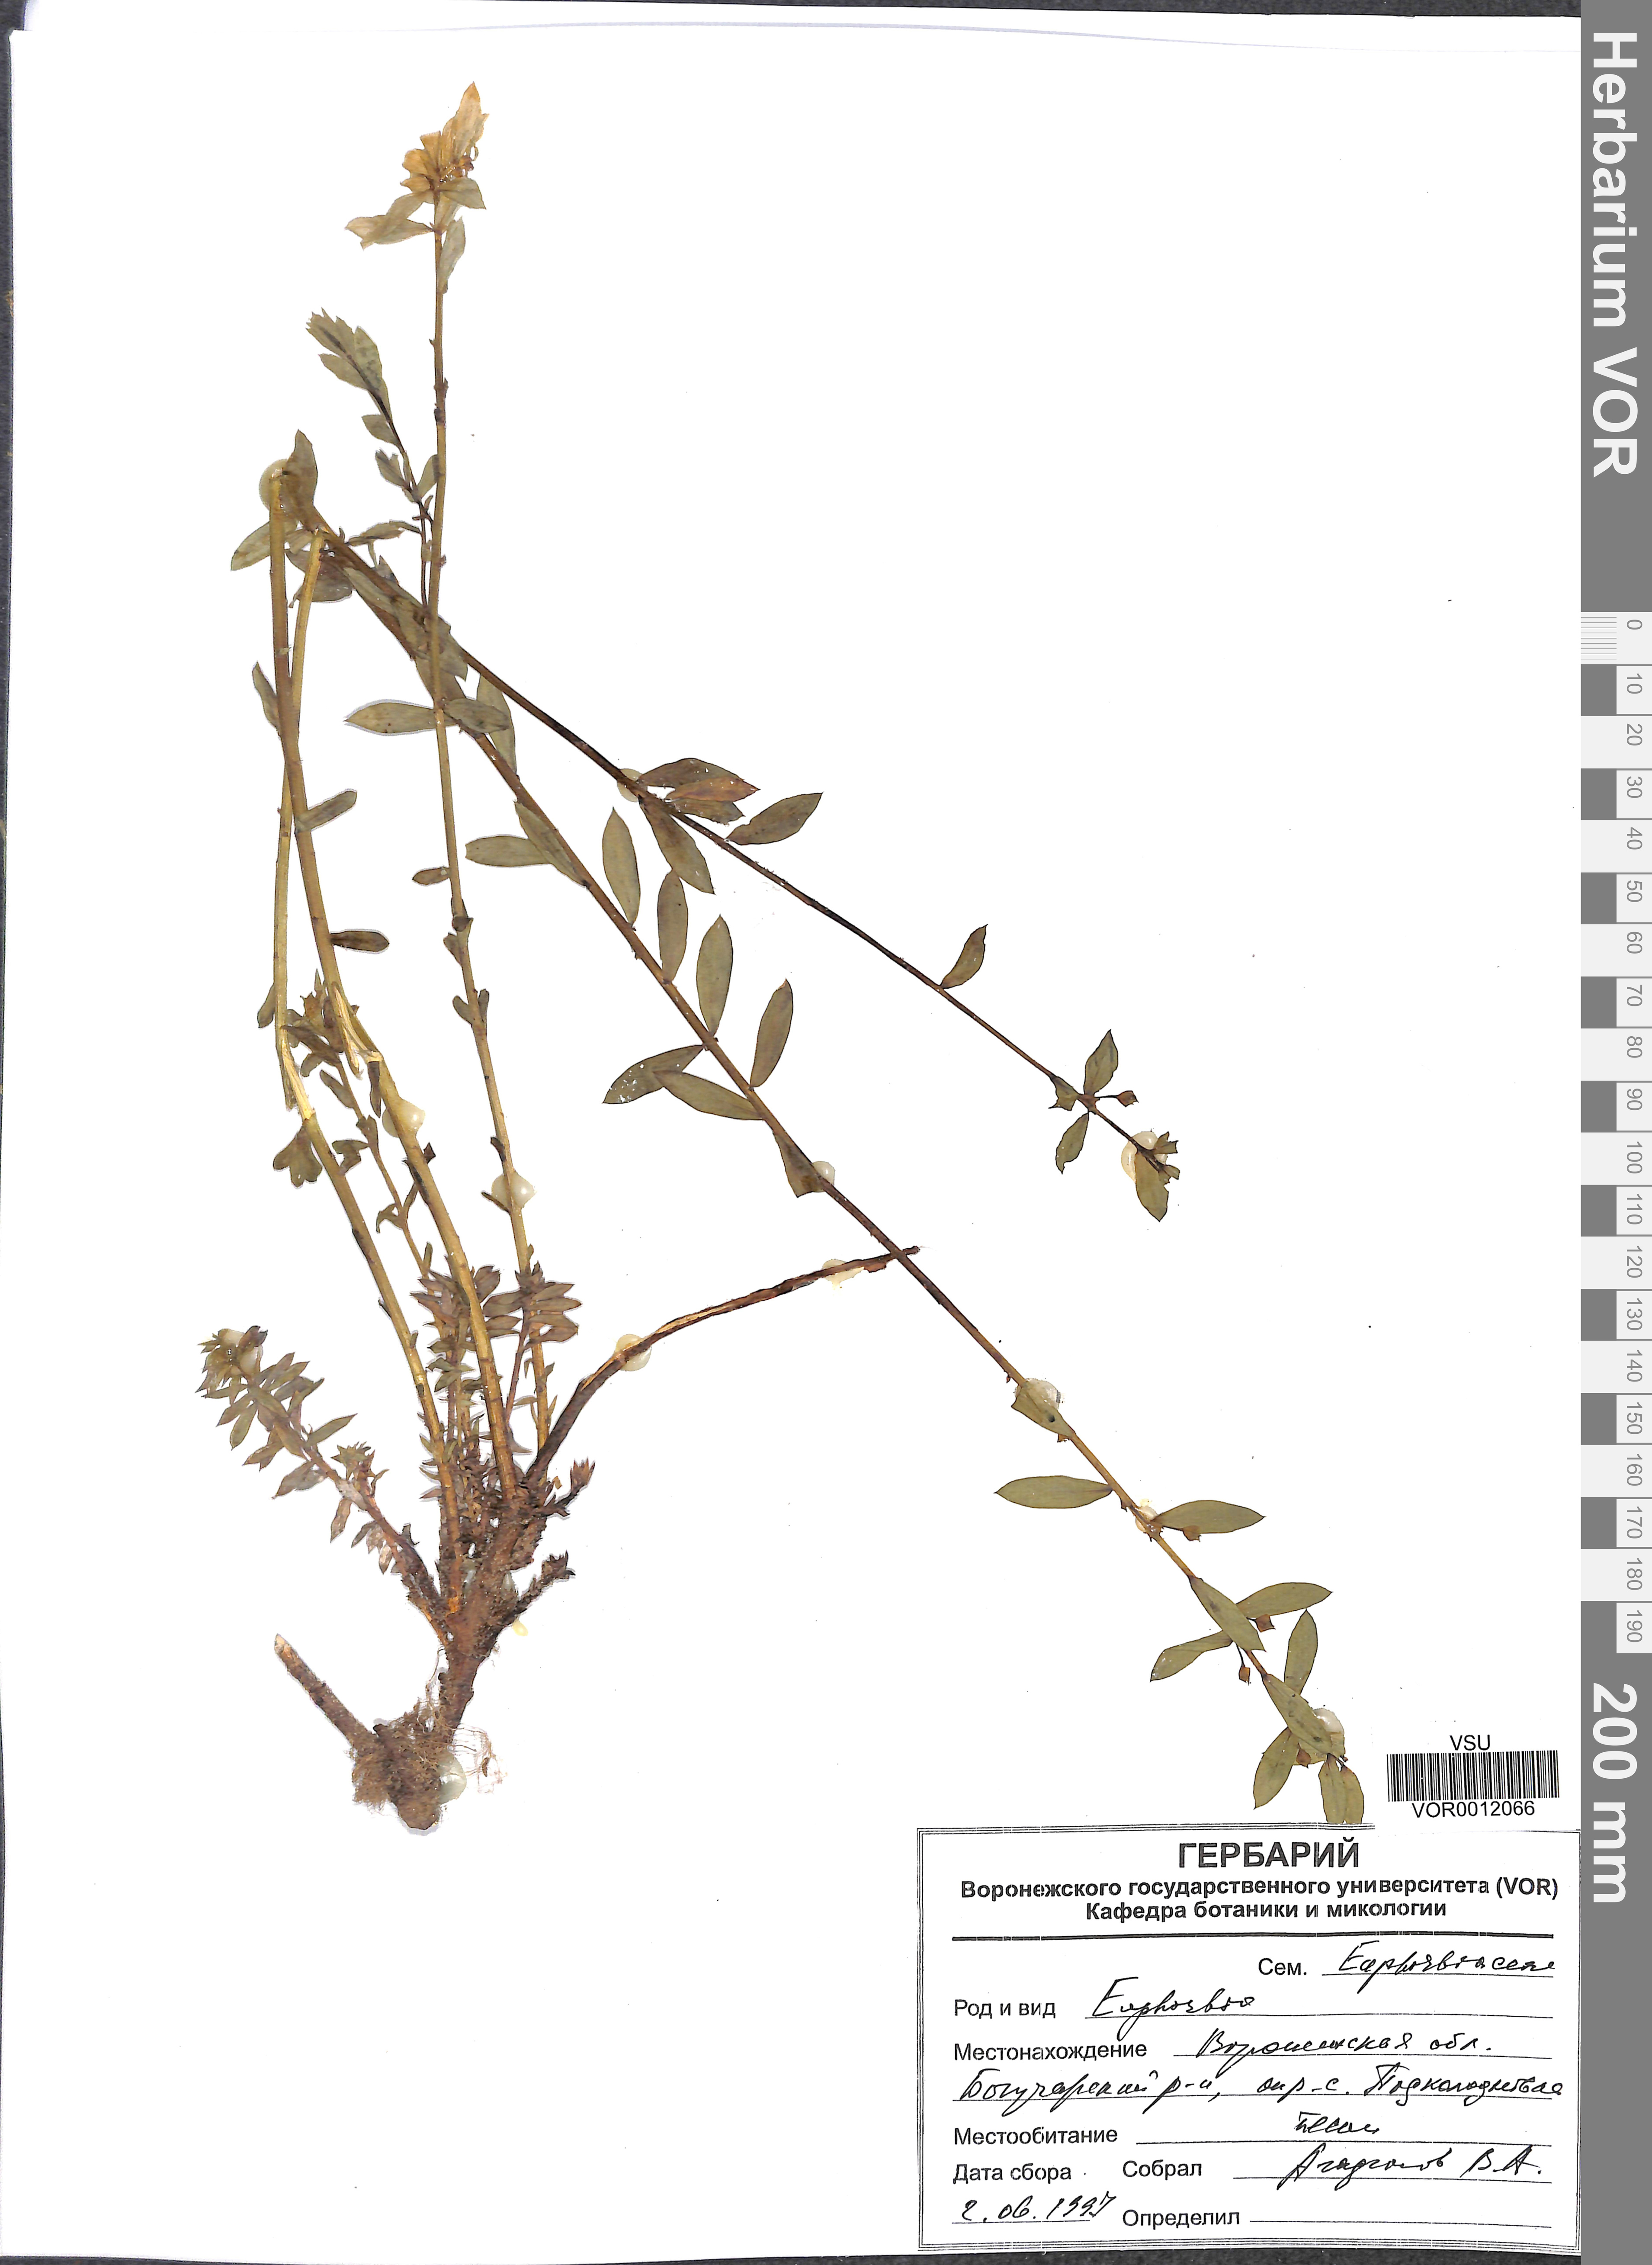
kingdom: Plantae
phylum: Tracheophyta
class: Magnoliopsida
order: Malpighiales
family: Euphorbiaceae
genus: Euphorbia
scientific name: Euphorbia seguieriana
